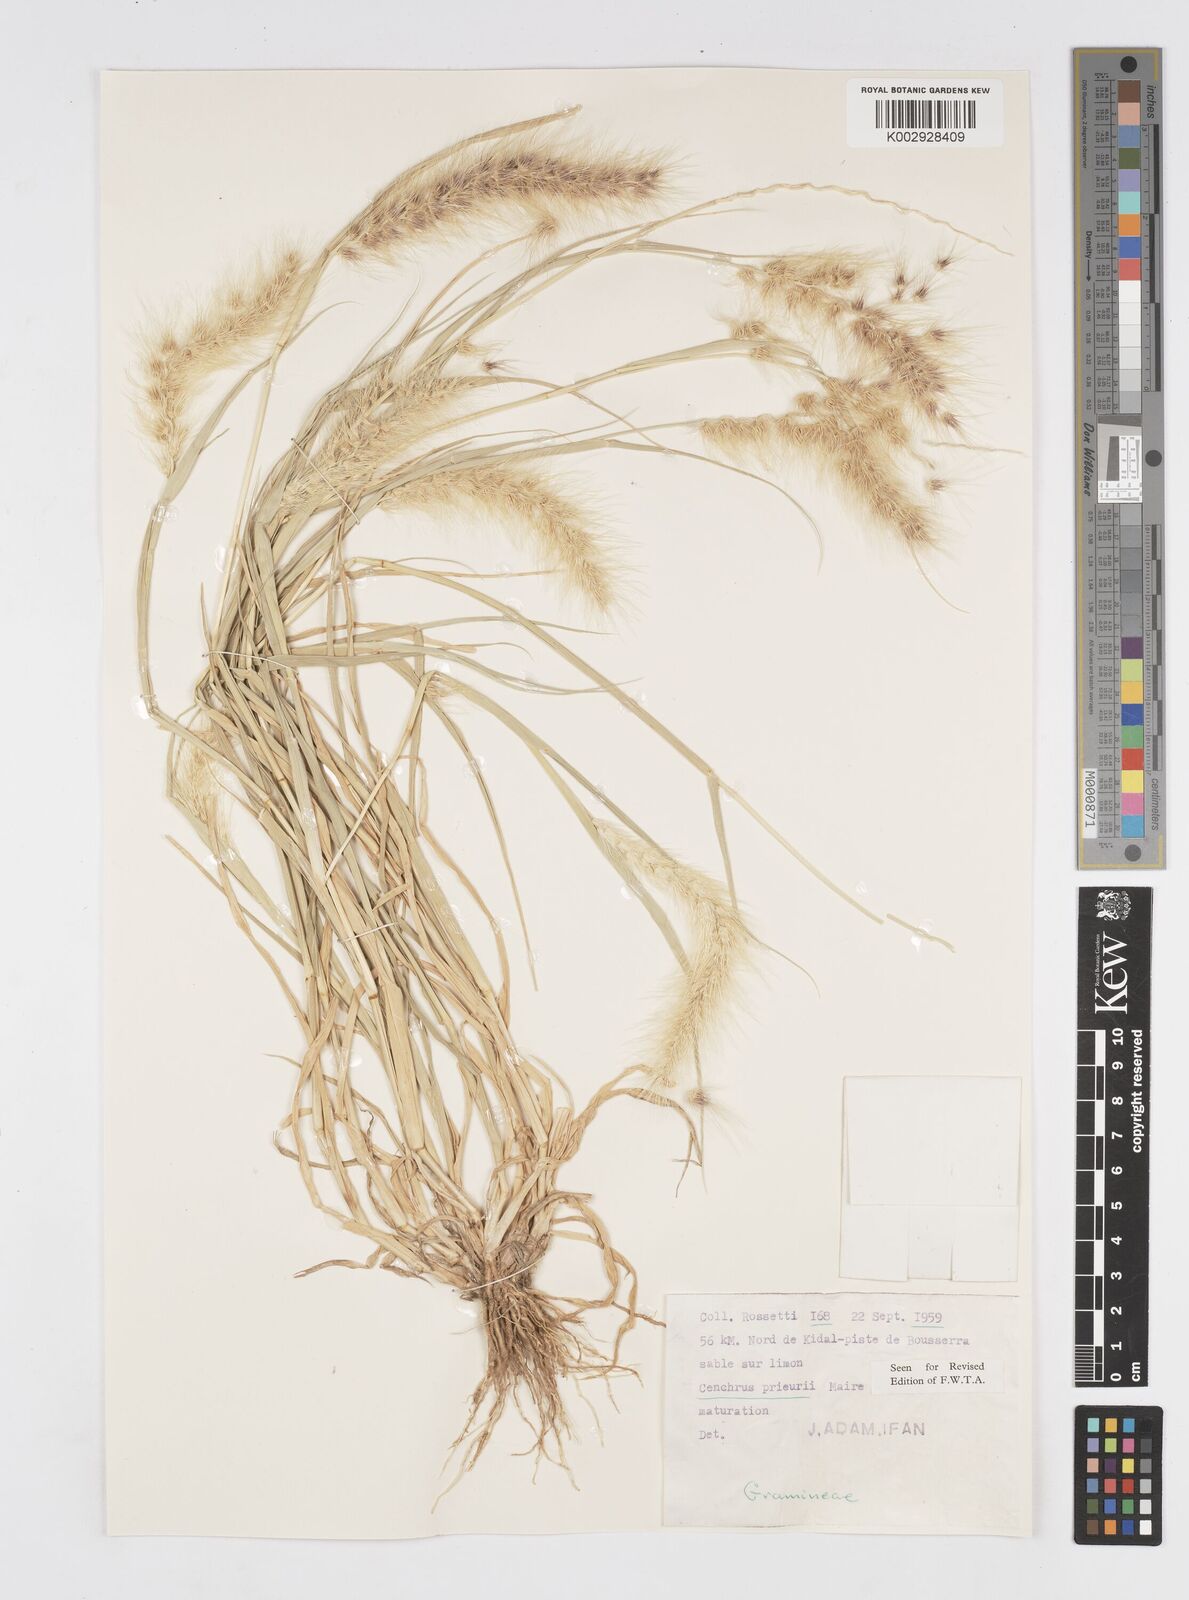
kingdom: Plantae
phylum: Tracheophyta
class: Liliopsida
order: Poales
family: Poaceae
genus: Cenchrus
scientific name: Cenchrus prieurii
